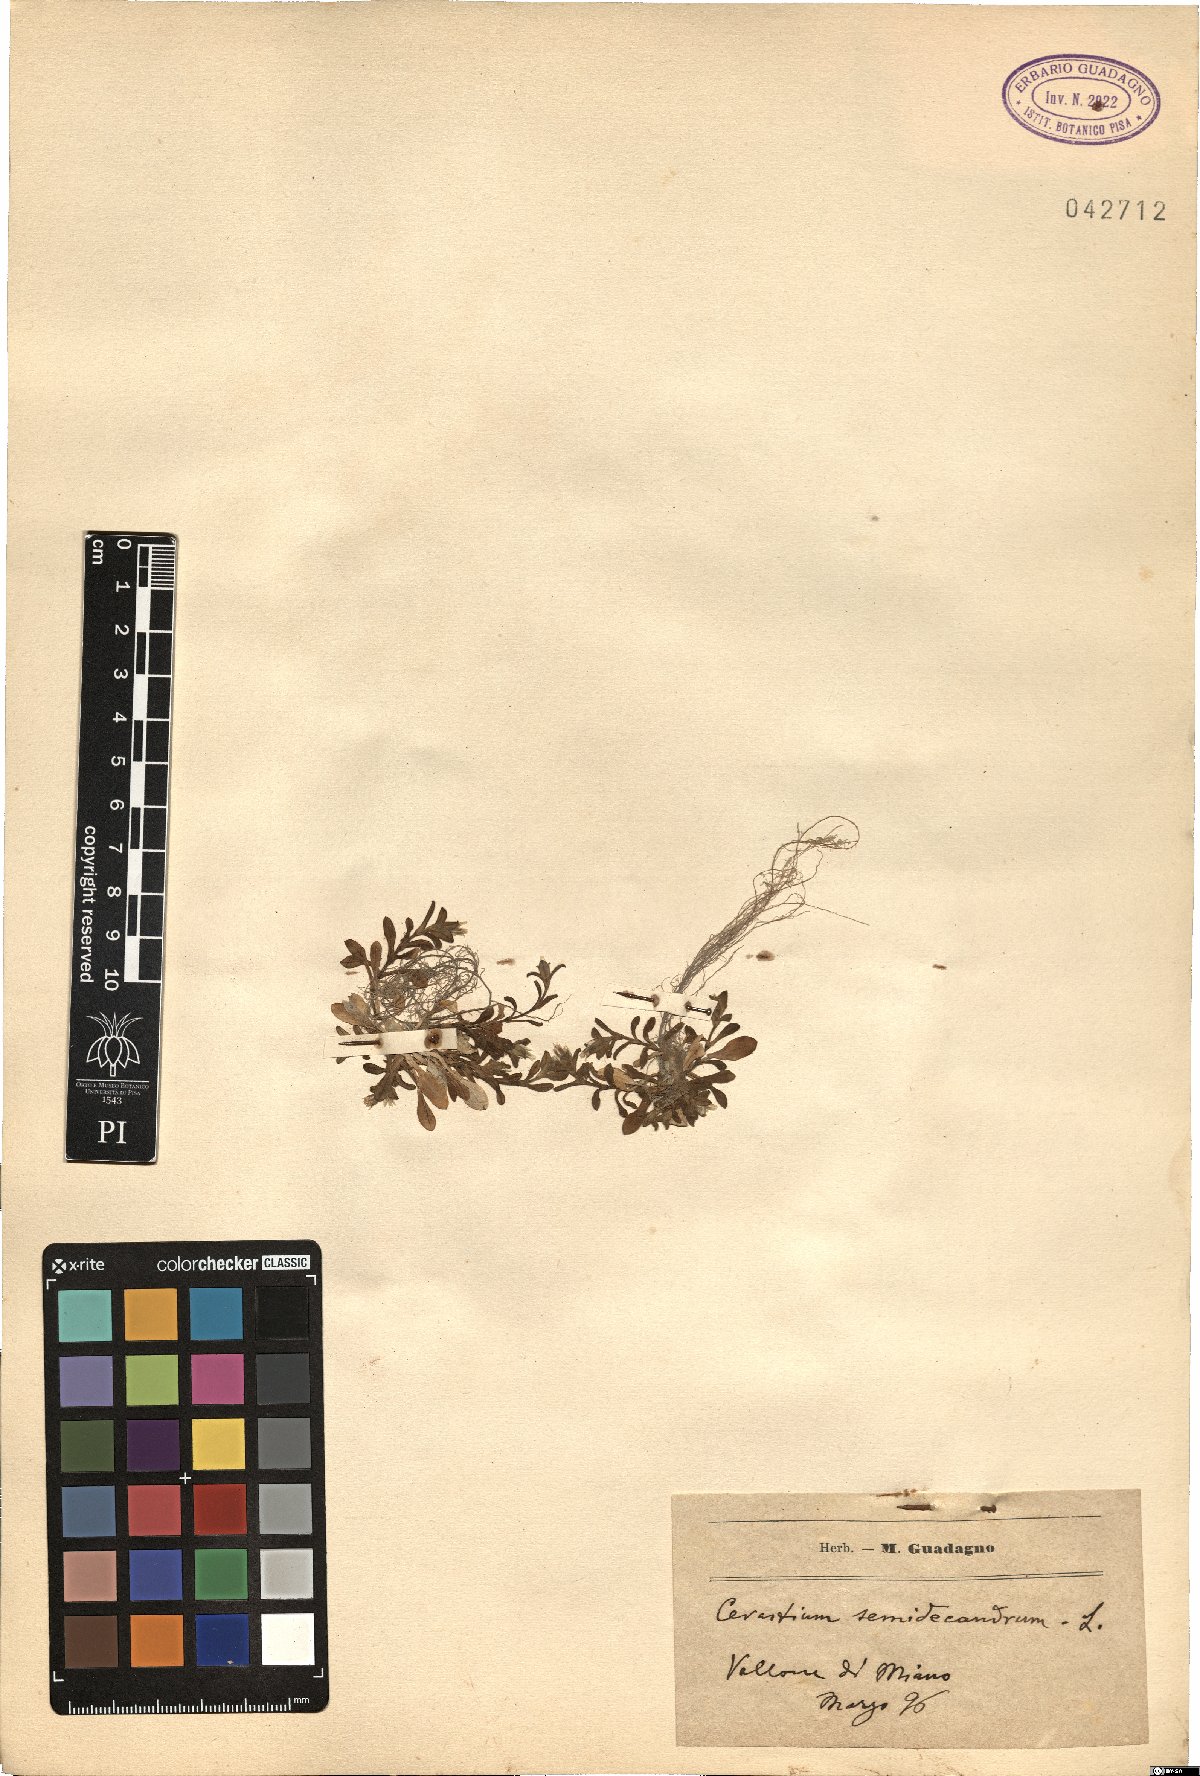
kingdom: Plantae
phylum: Tracheophyta
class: Magnoliopsida
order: Caryophyllales
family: Caryophyllaceae
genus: Cerastium
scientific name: Cerastium semidecandrum
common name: Little mouse-ear
